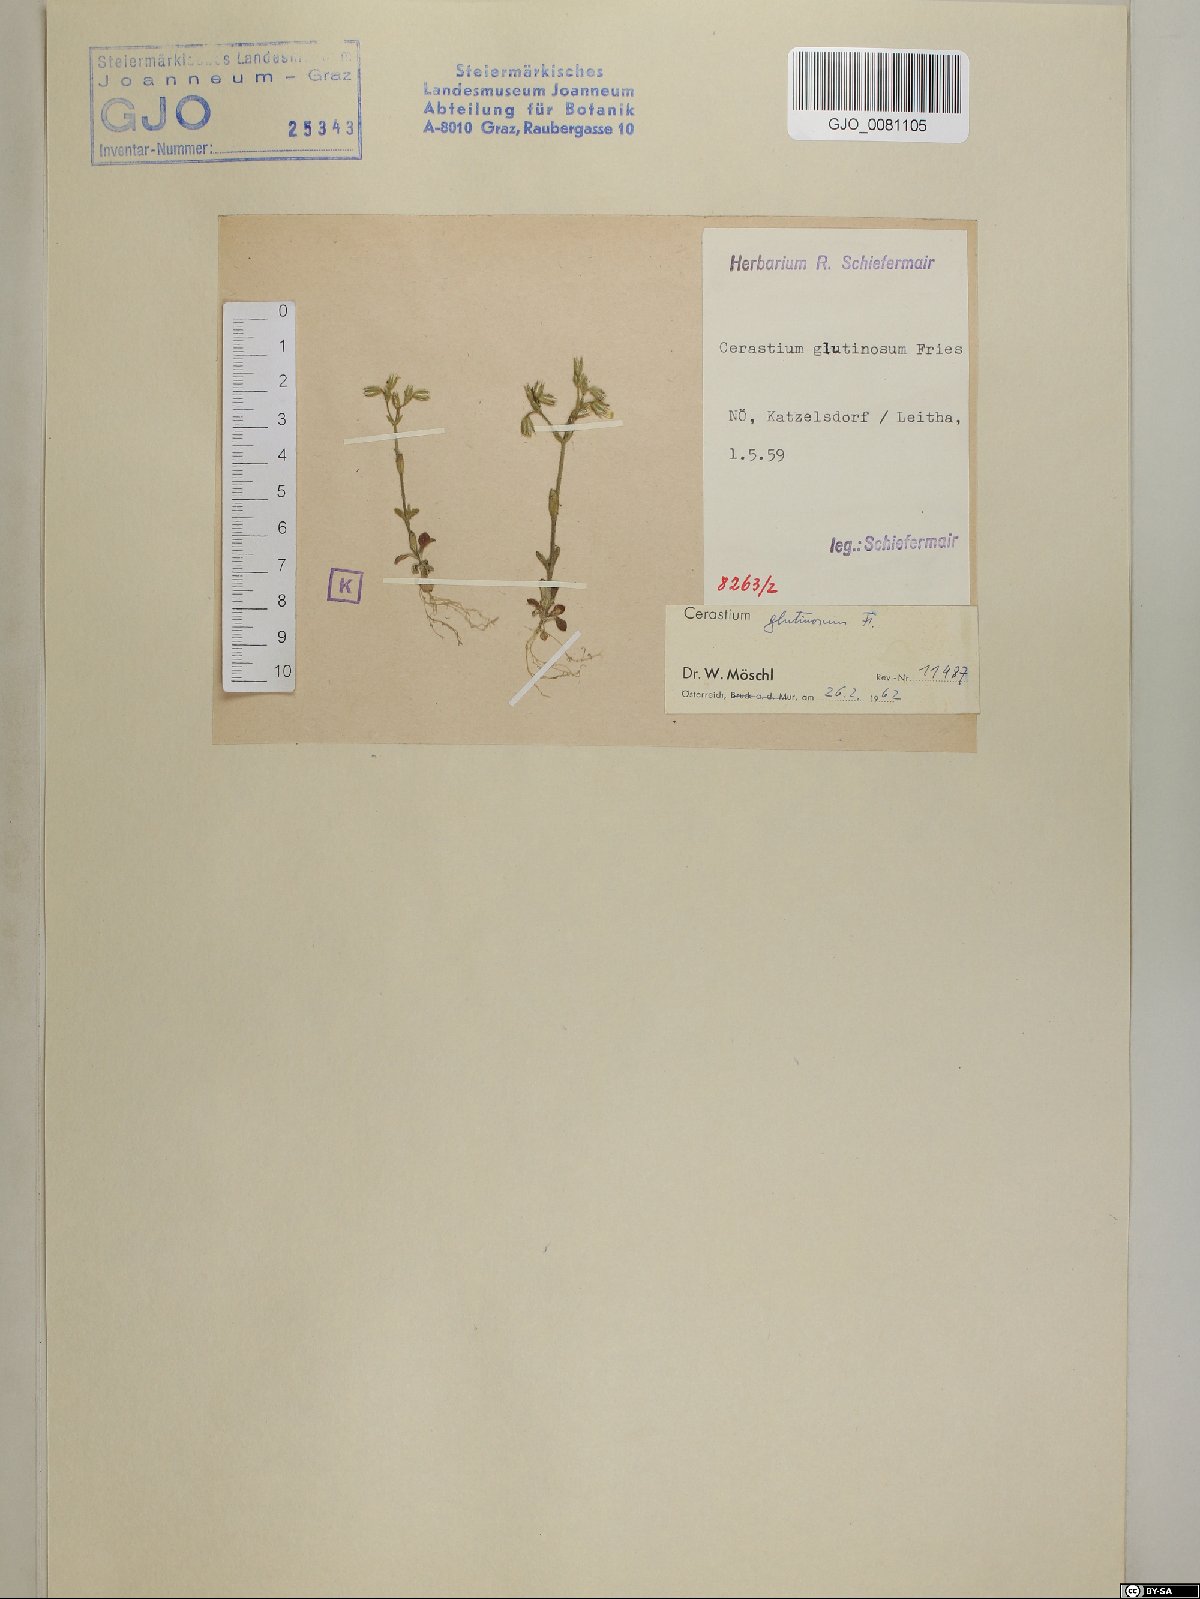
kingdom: Plantae
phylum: Tracheophyta
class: Magnoliopsida
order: Caryophyllales
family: Caryophyllaceae
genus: Cerastium
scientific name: Cerastium glutinosum
